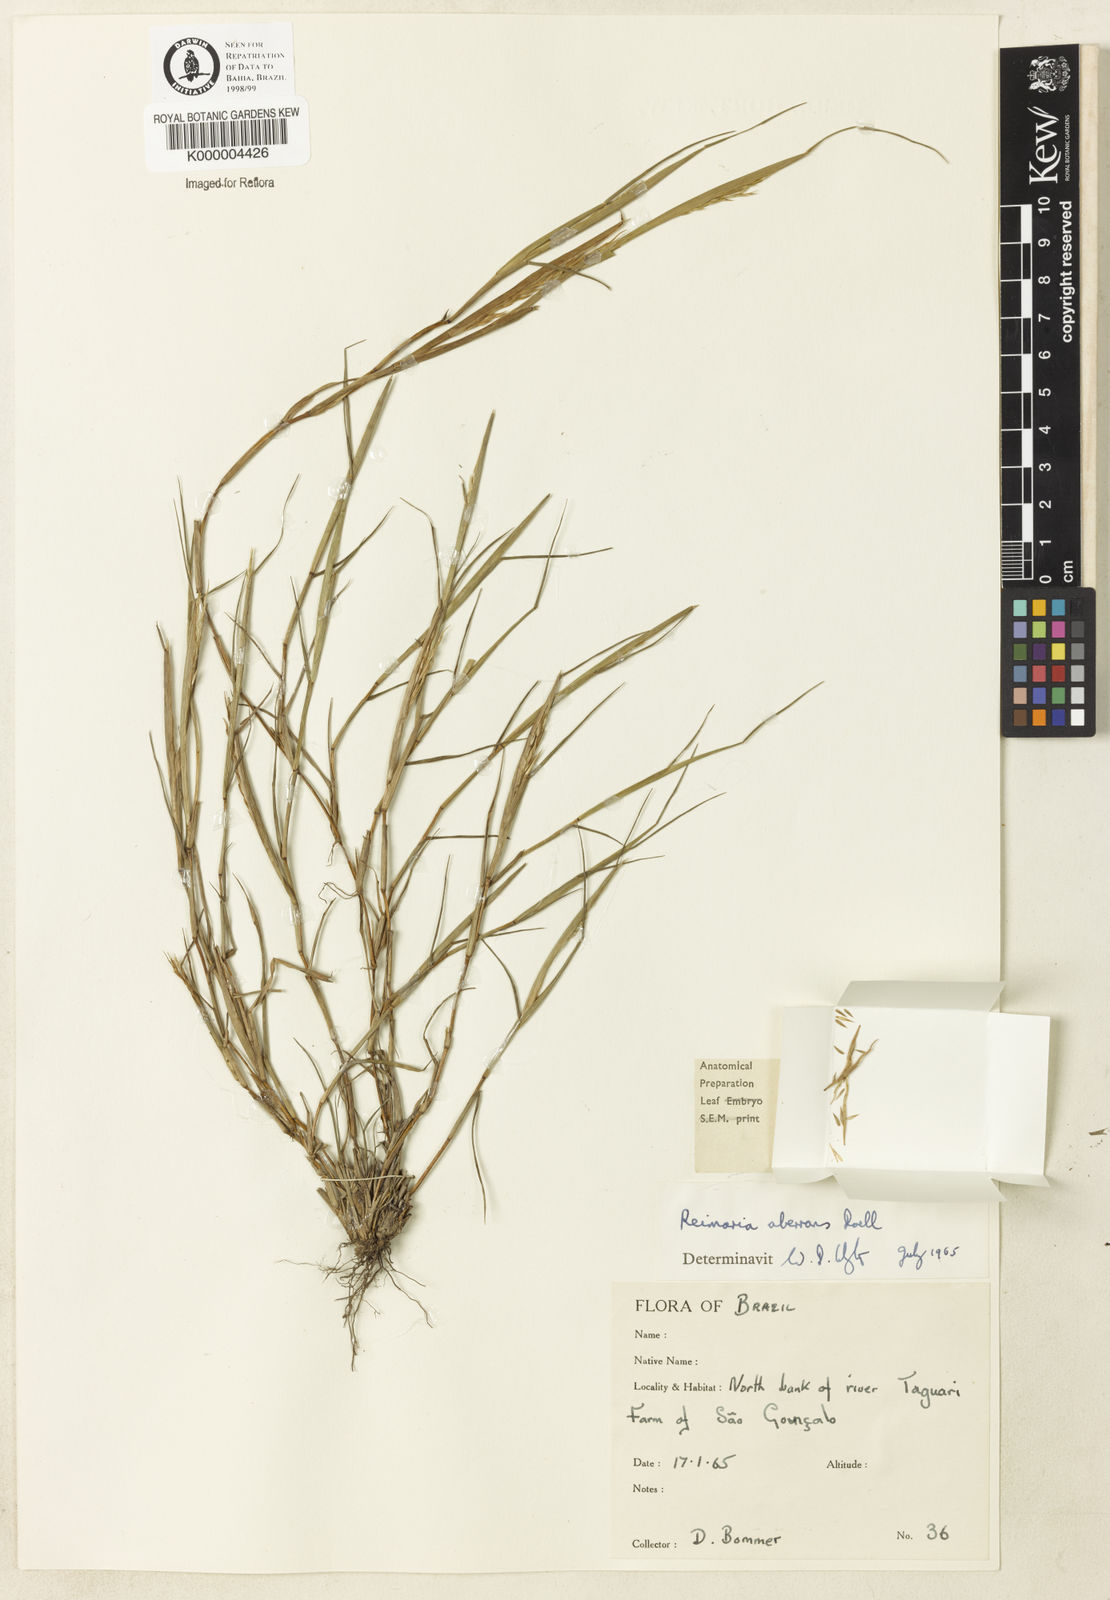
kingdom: Plantae
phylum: Tracheophyta
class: Liliopsida
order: Poales
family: Poaceae
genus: Paspalum
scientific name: Paspalum stagnophilum
